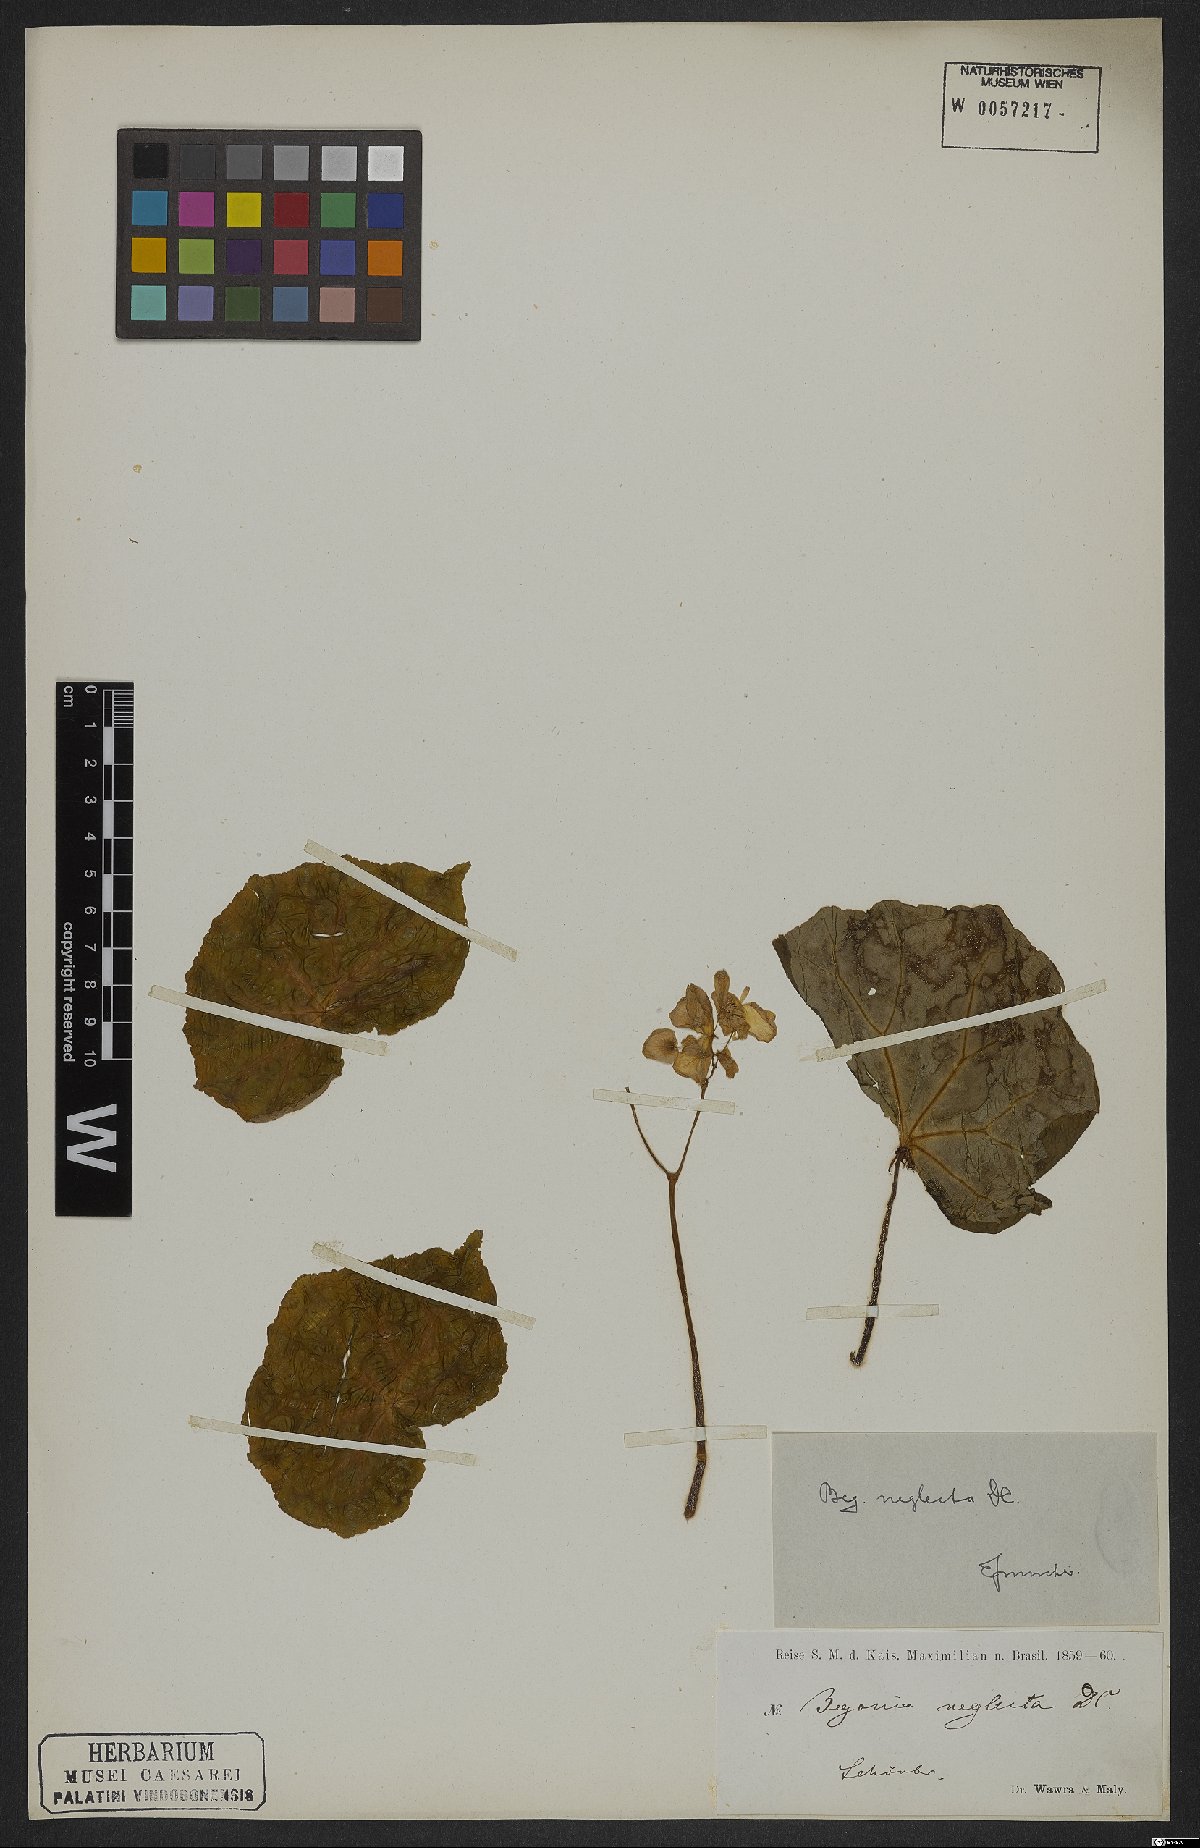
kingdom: Plantae
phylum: Tracheophyta
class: Magnoliopsida
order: Cucurbitales
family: Begoniaceae
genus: Begonia
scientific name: Begonia neglecta
